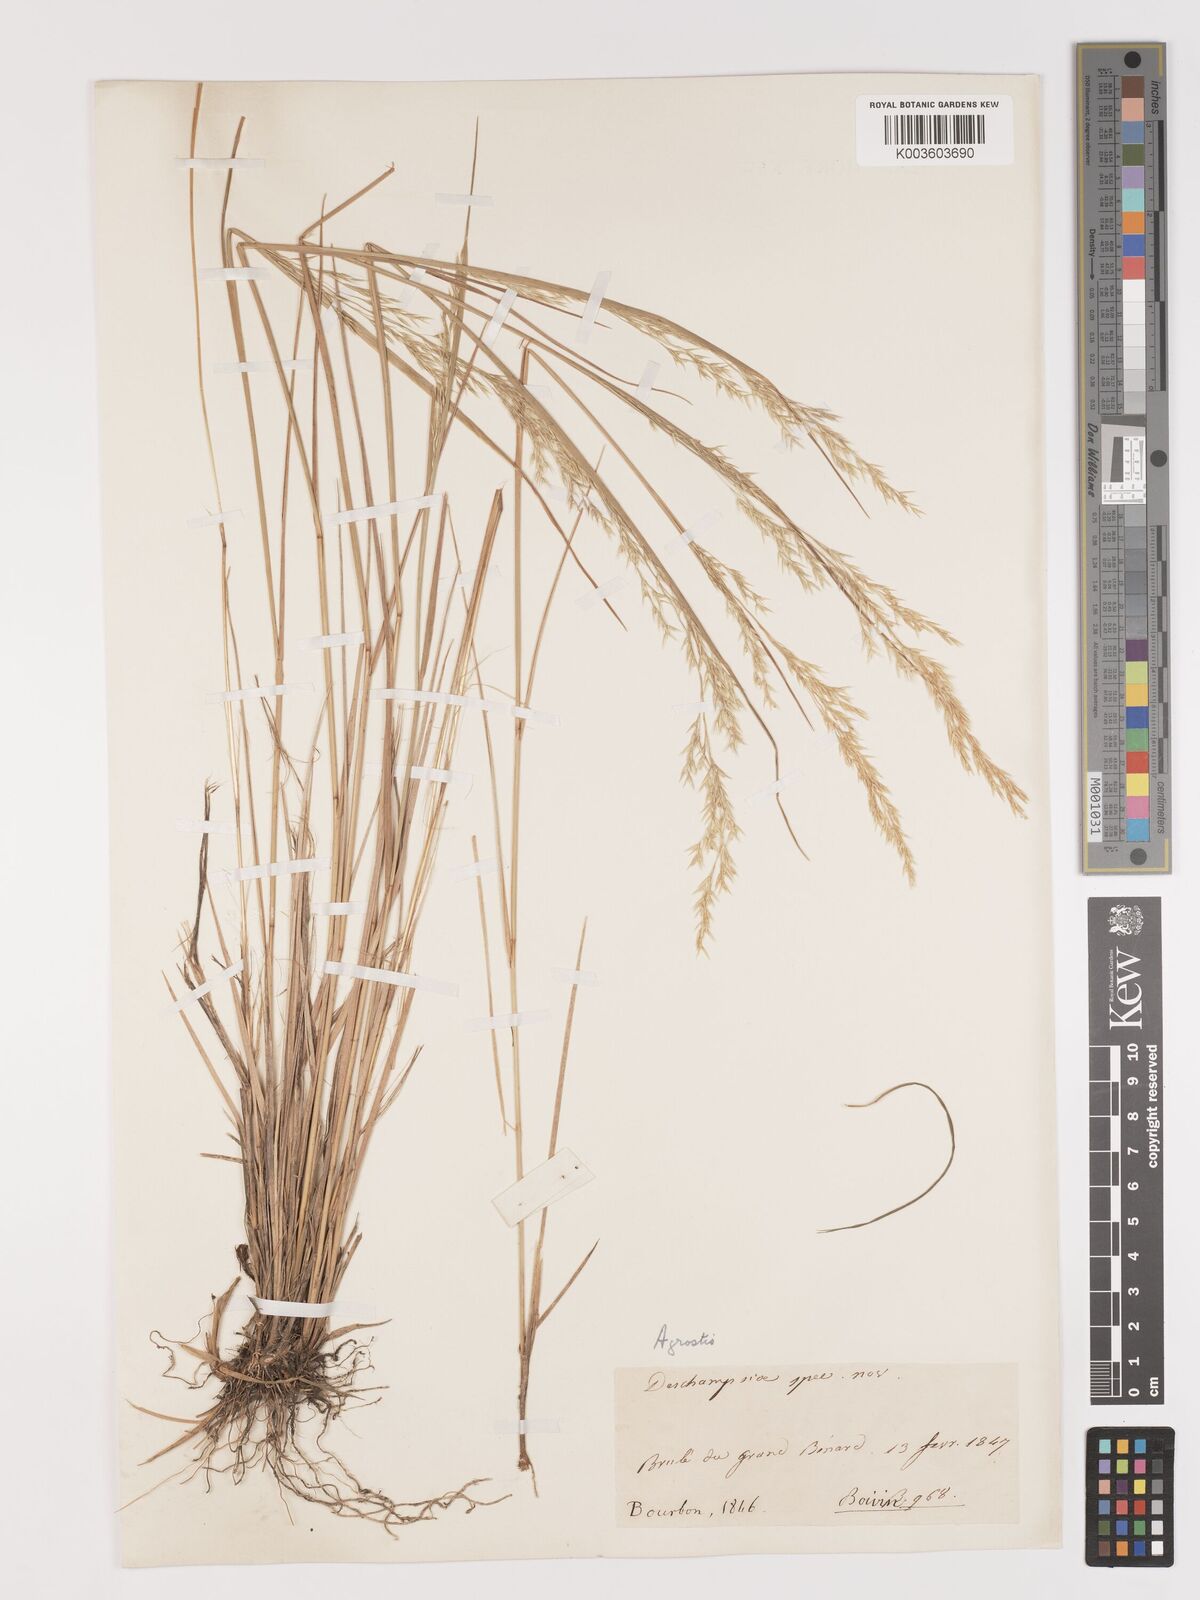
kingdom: Plantae
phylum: Tracheophyta
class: Liliopsida
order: Poales
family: Poaceae
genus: Agrostis
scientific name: Agrostis salaziensis
